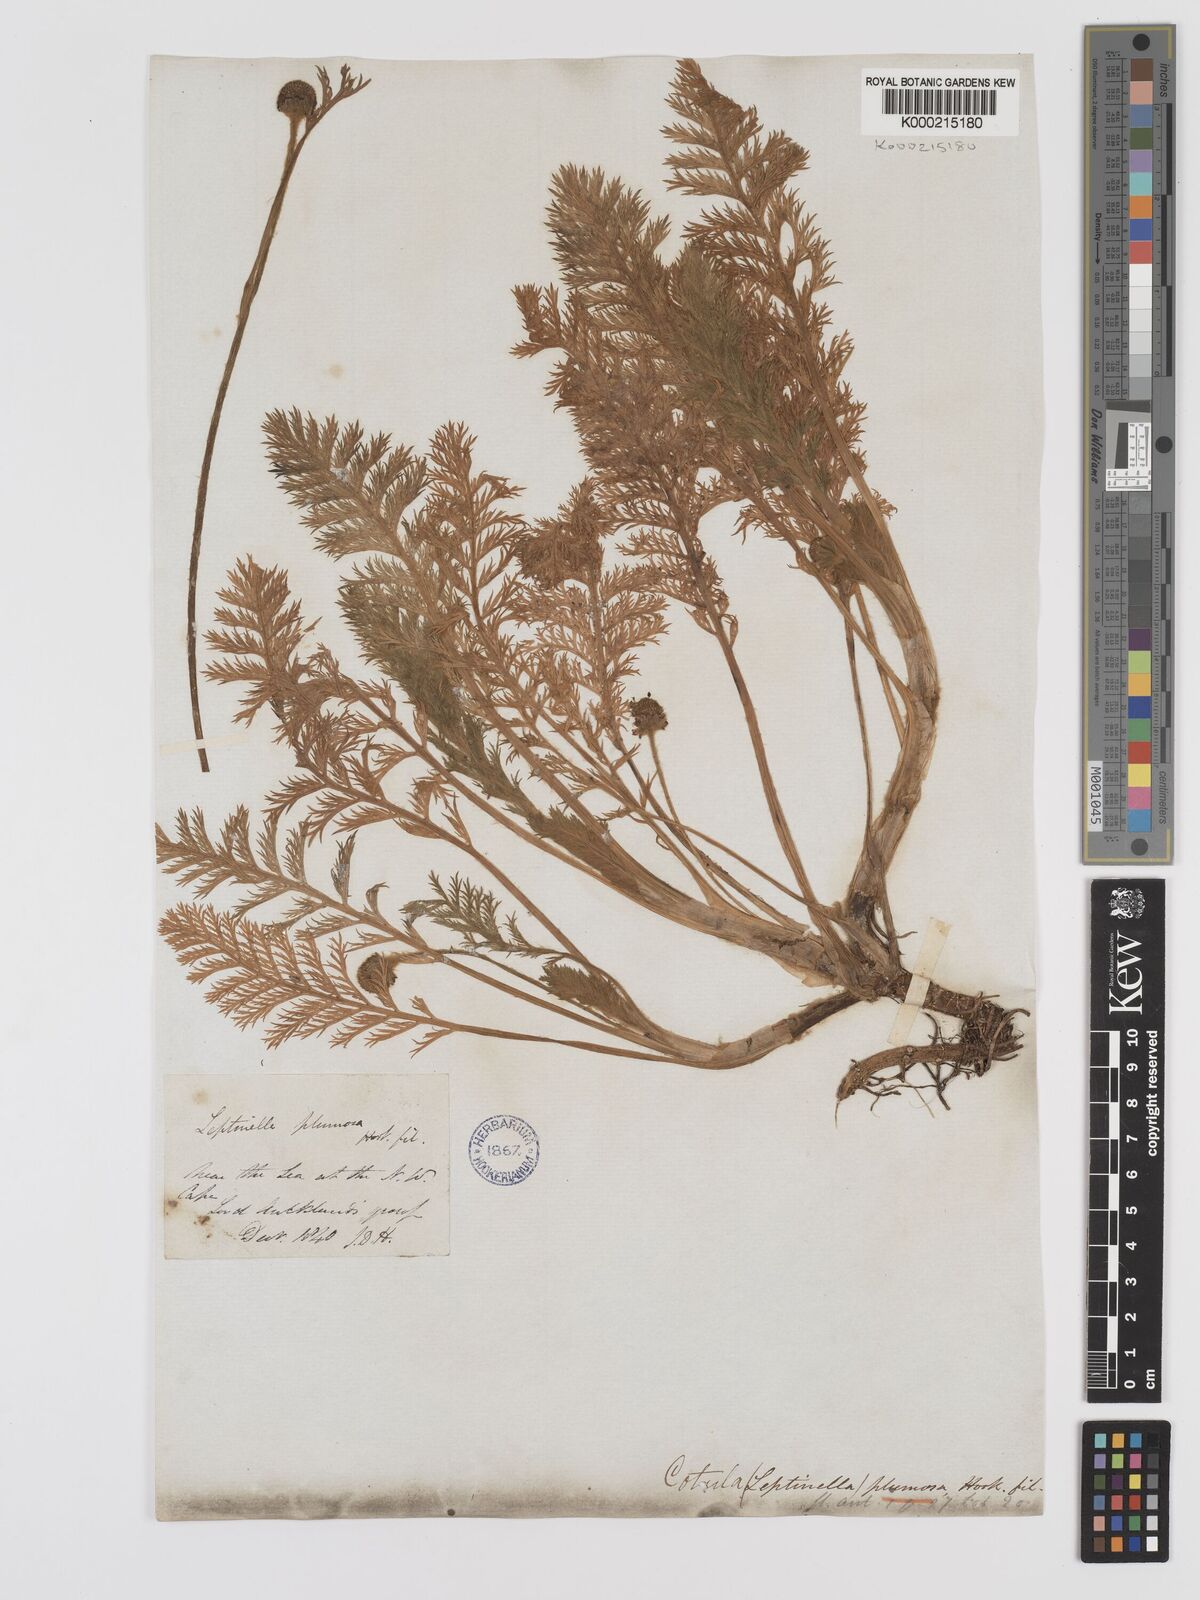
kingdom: Plantae
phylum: Tracheophyta
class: Magnoliopsida
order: Asterales
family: Asteraceae
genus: Leptinella
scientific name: Leptinella
